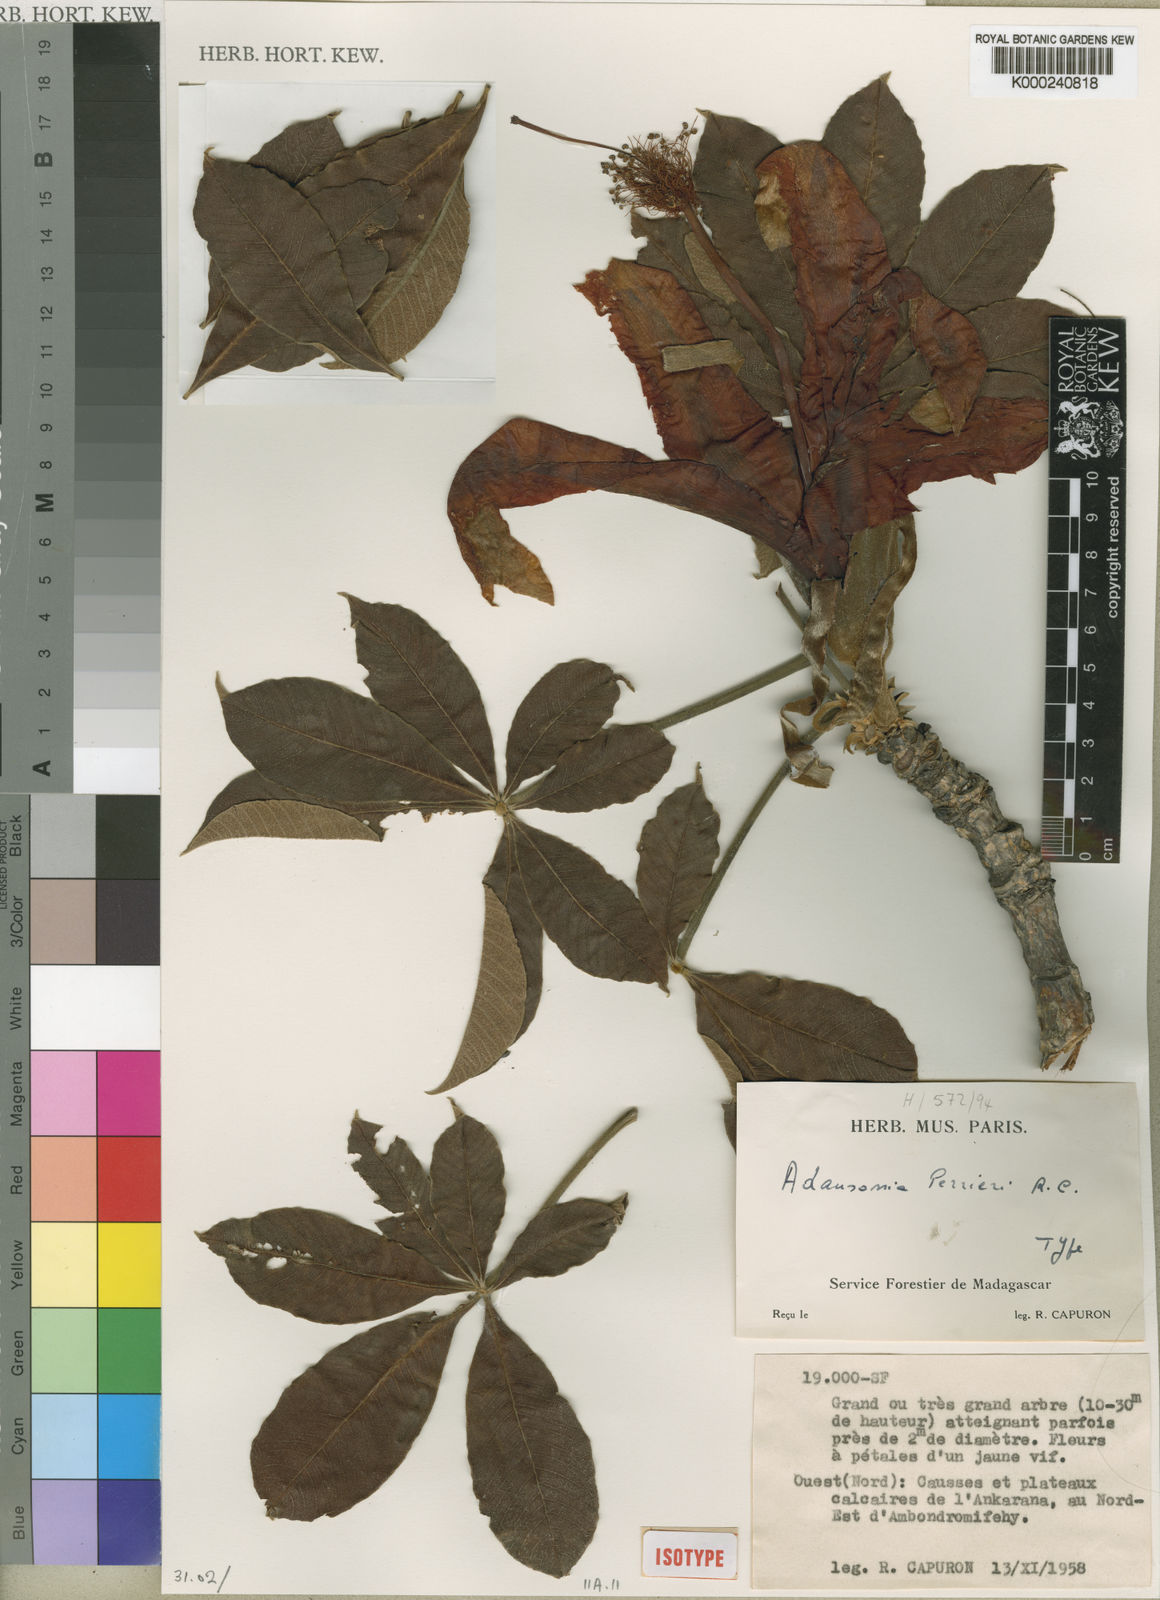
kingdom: Plantae
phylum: Tracheophyta
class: Magnoliopsida
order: Malvales
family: Malvaceae
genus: Adansonia
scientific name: Adansonia perrieri
